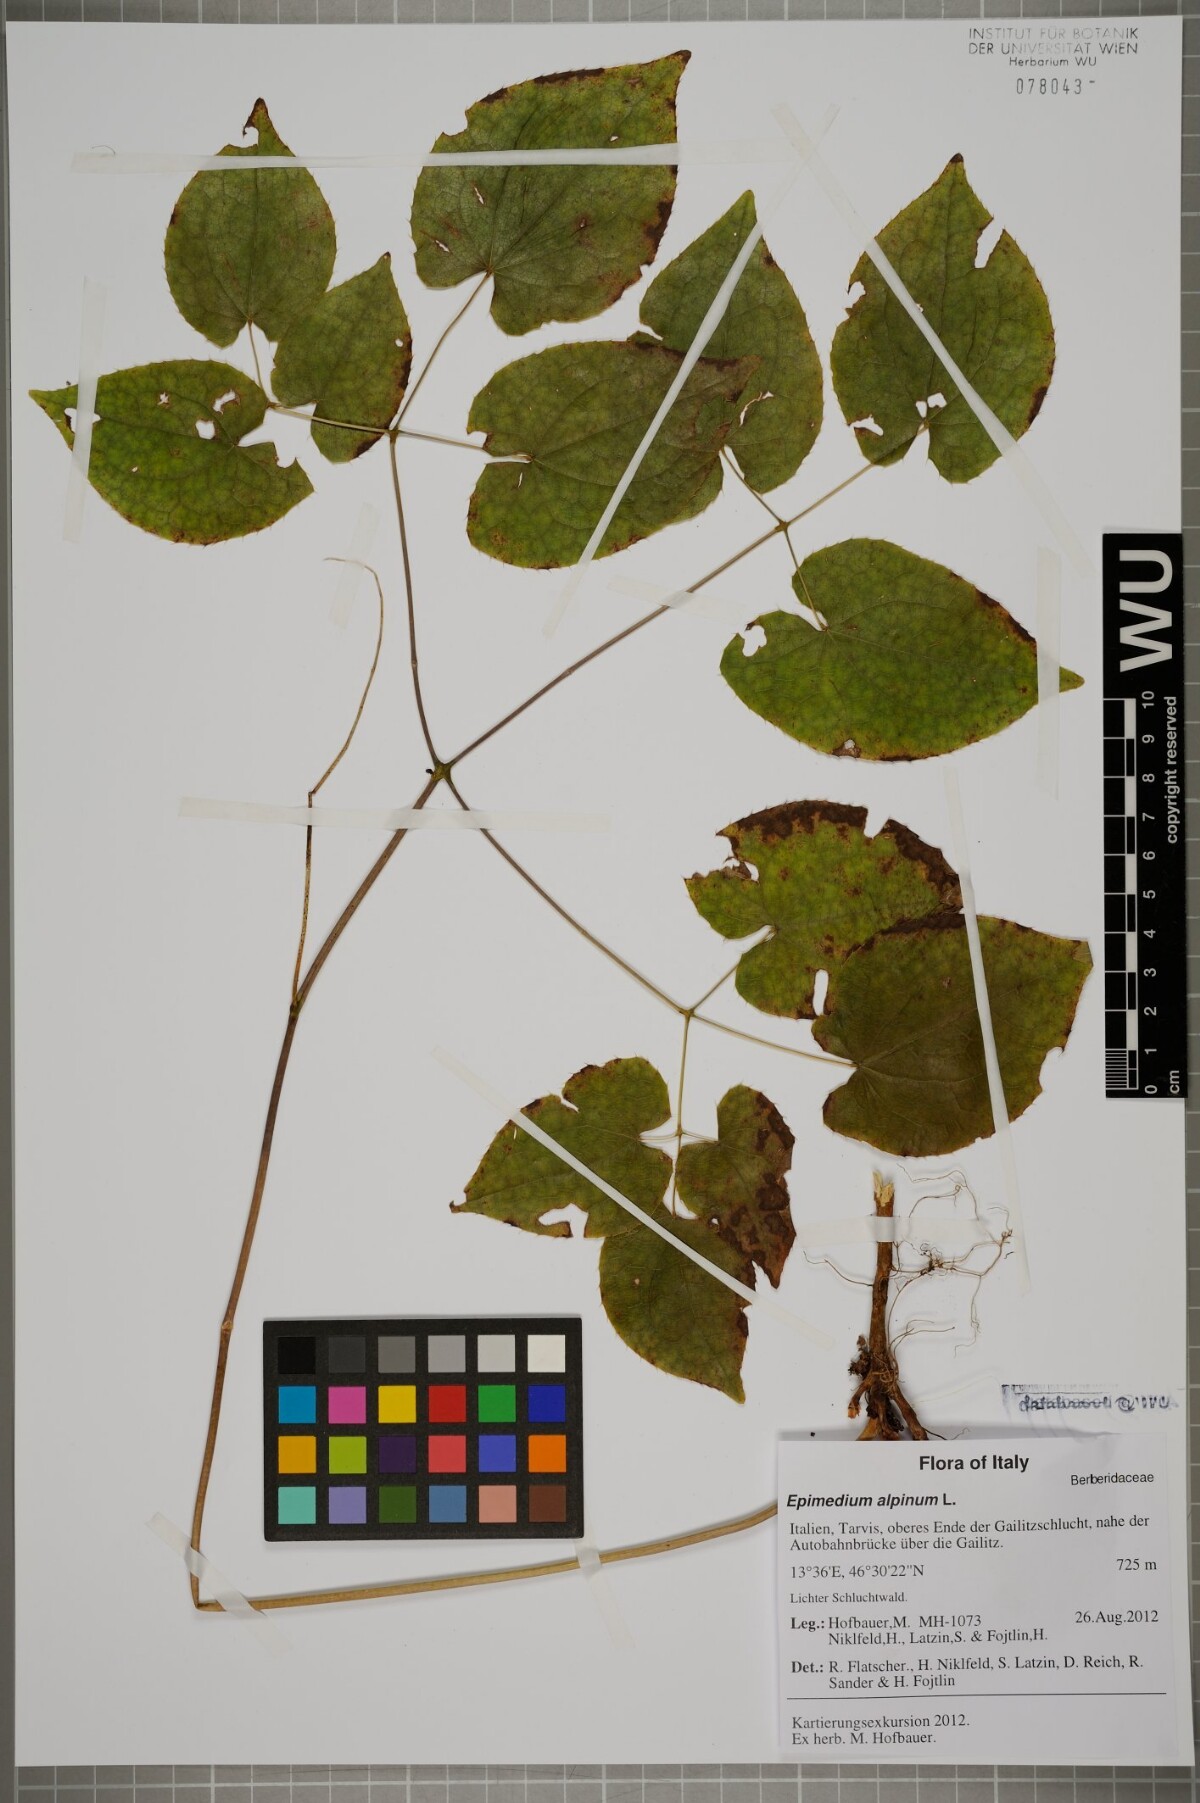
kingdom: Plantae
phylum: Tracheophyta
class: Magnoliopsida
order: Ranunculales
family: Berberidaceae
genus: Epimedium
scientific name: Epimedium alpinum
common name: Barrenwort
